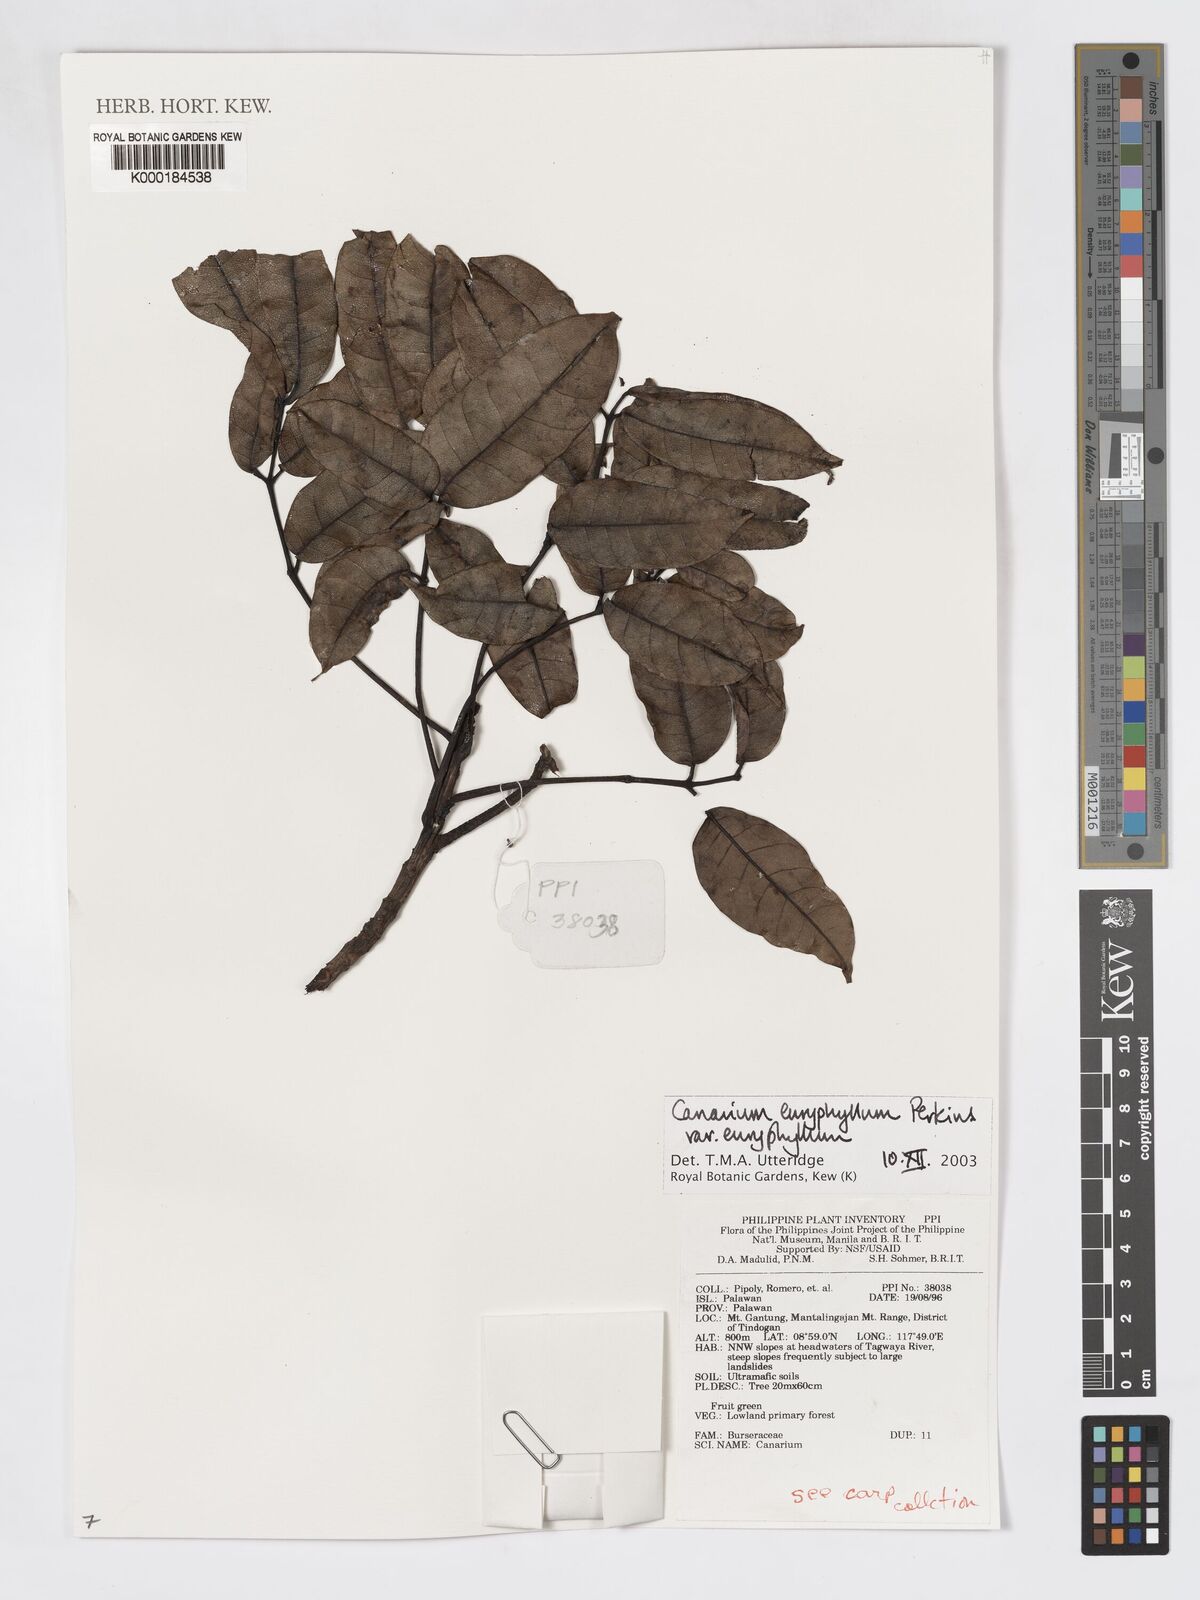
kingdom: Plantae
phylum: Tracheophyta
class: Magnoliopsida
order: Sapindales
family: Burseraceae
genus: Canarium
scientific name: Canarium euryphyllum
